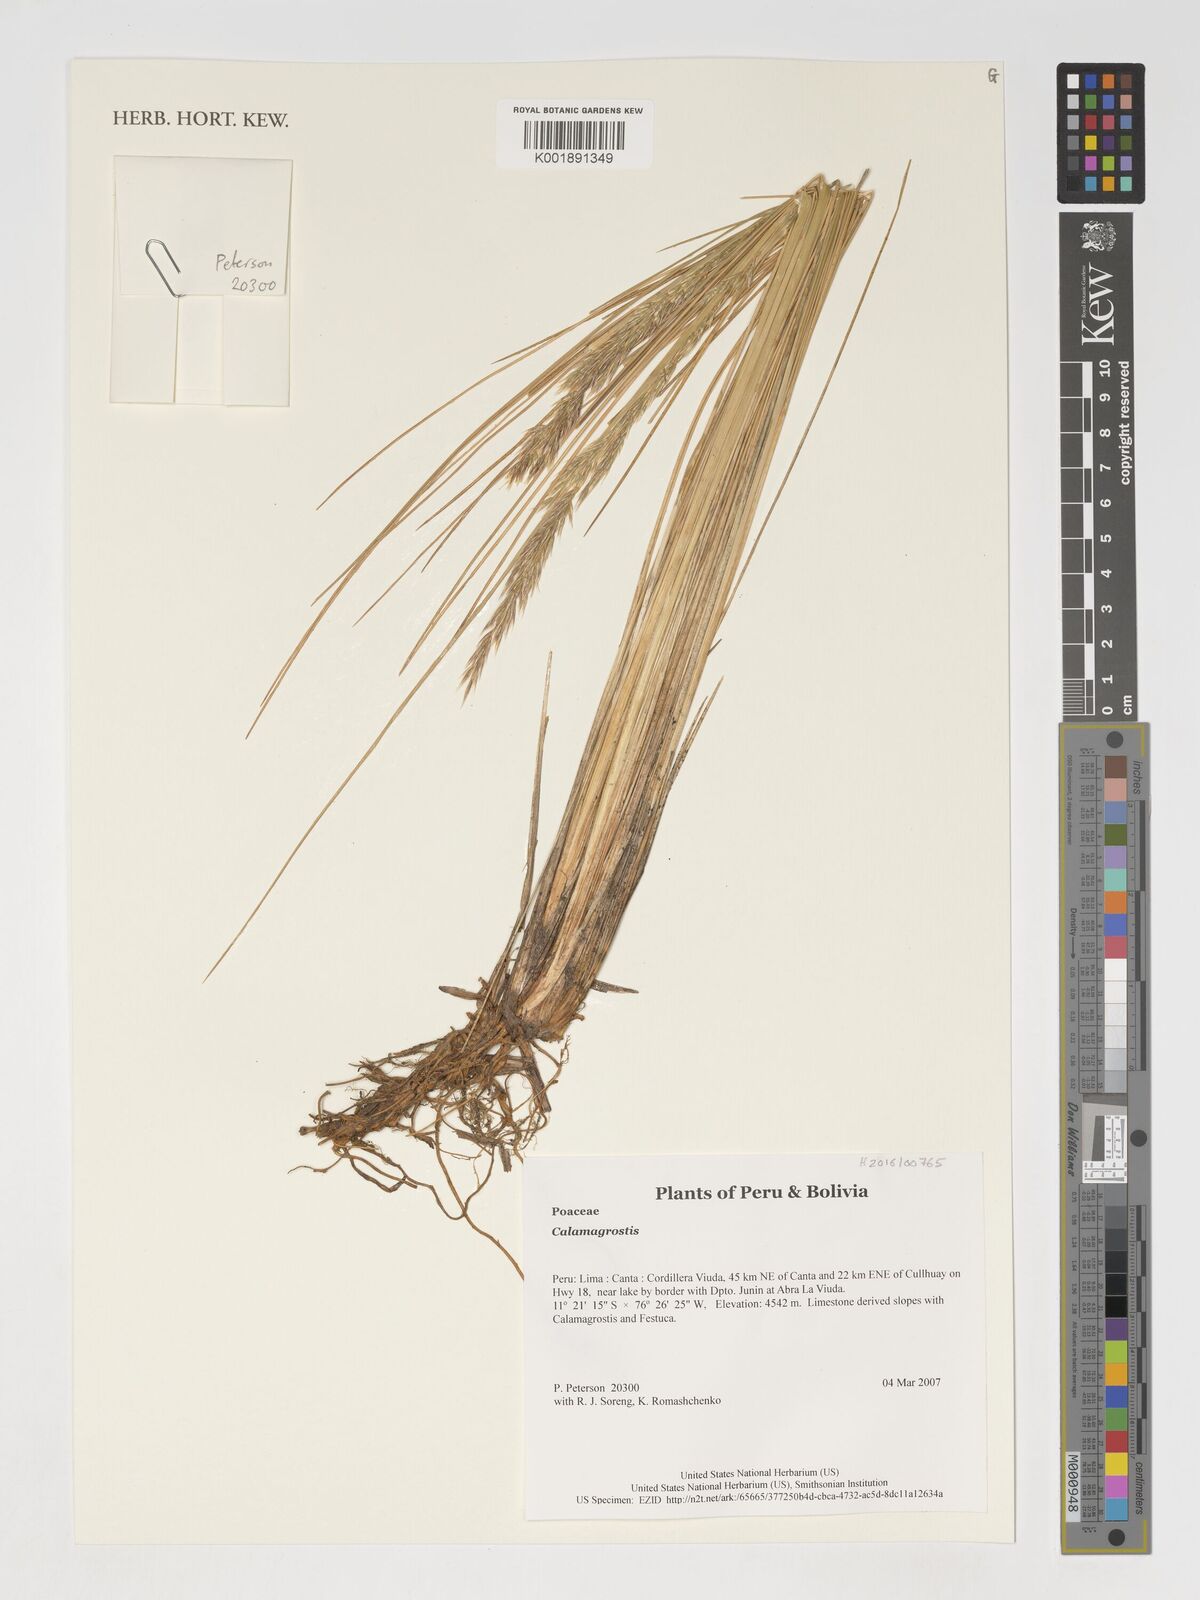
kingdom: Plantae
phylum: Tracheophyta
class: Liliopsida
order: Poales
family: Poaceae
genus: Calamagrostis
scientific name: Calamagrostis
